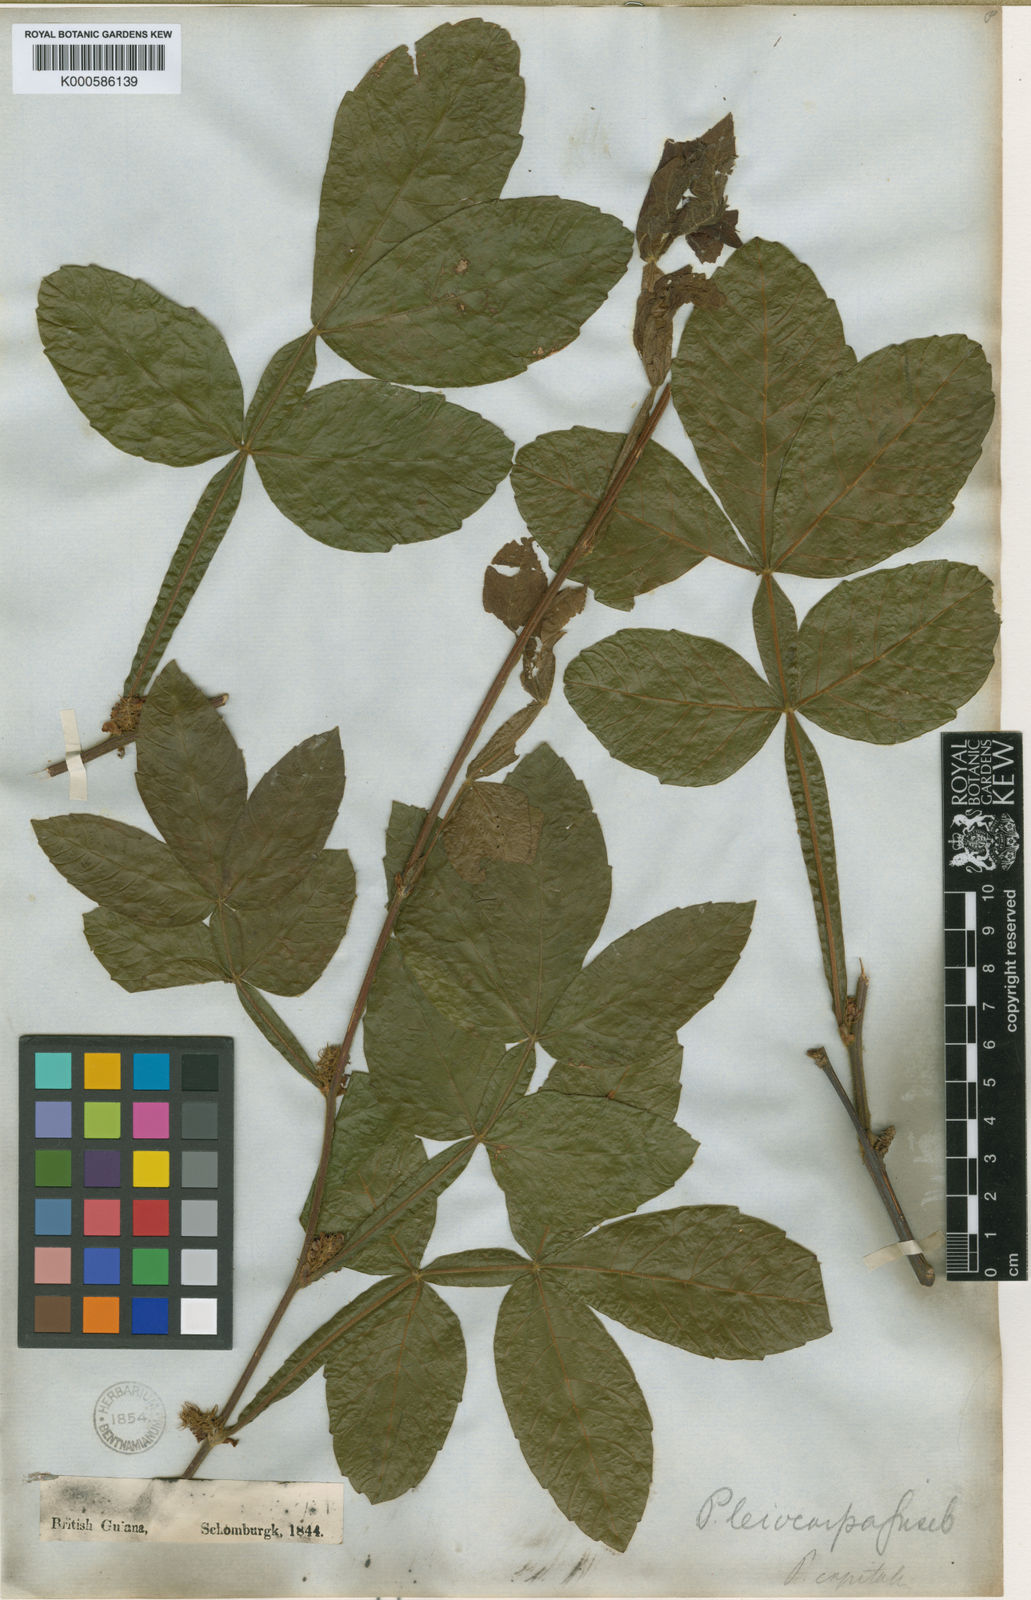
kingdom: Plantae
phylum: Tracheophyta
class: Magnoliopsida
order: Sapindales
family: Sapindaceae
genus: Paullinia
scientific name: Paullinia leiocarpa
